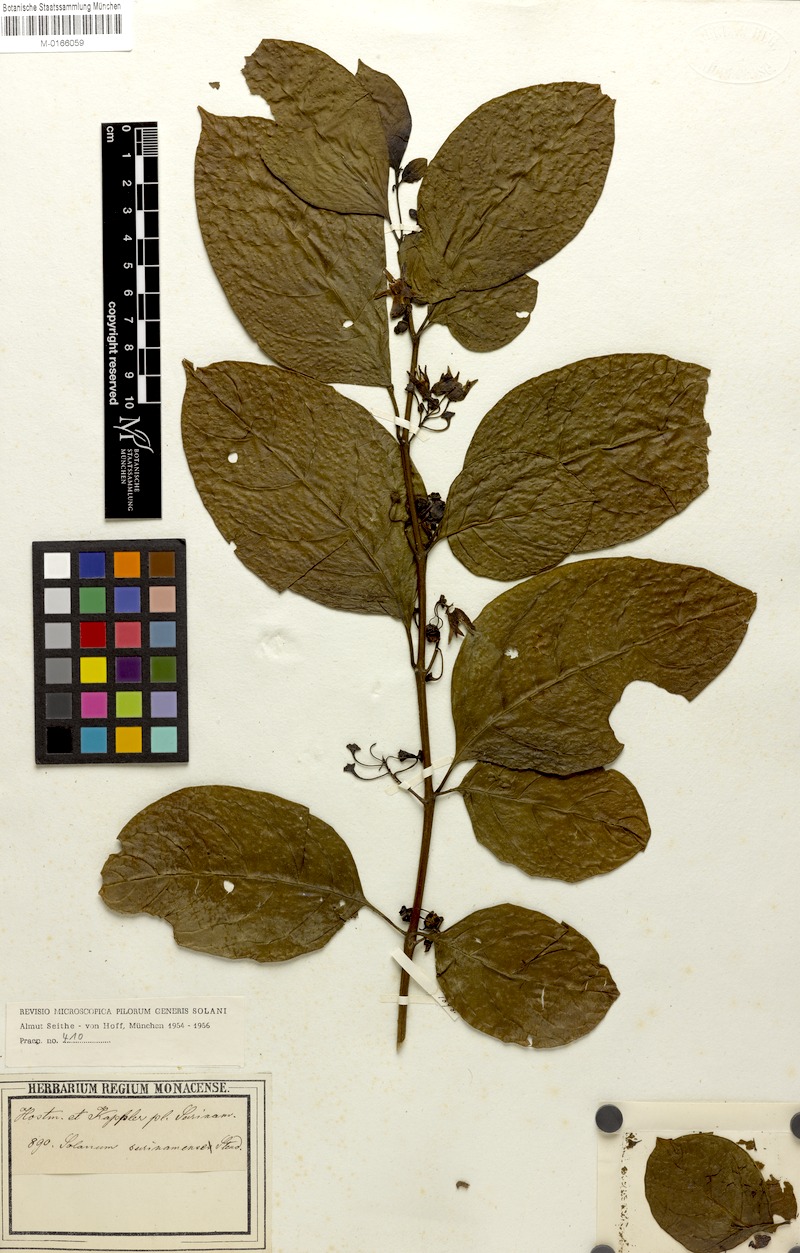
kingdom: Plantae
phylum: Tracheophyta
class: Magnoliopsida
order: Solanales
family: Solanaceae
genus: Solanum
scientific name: Solanum leucocarpon
